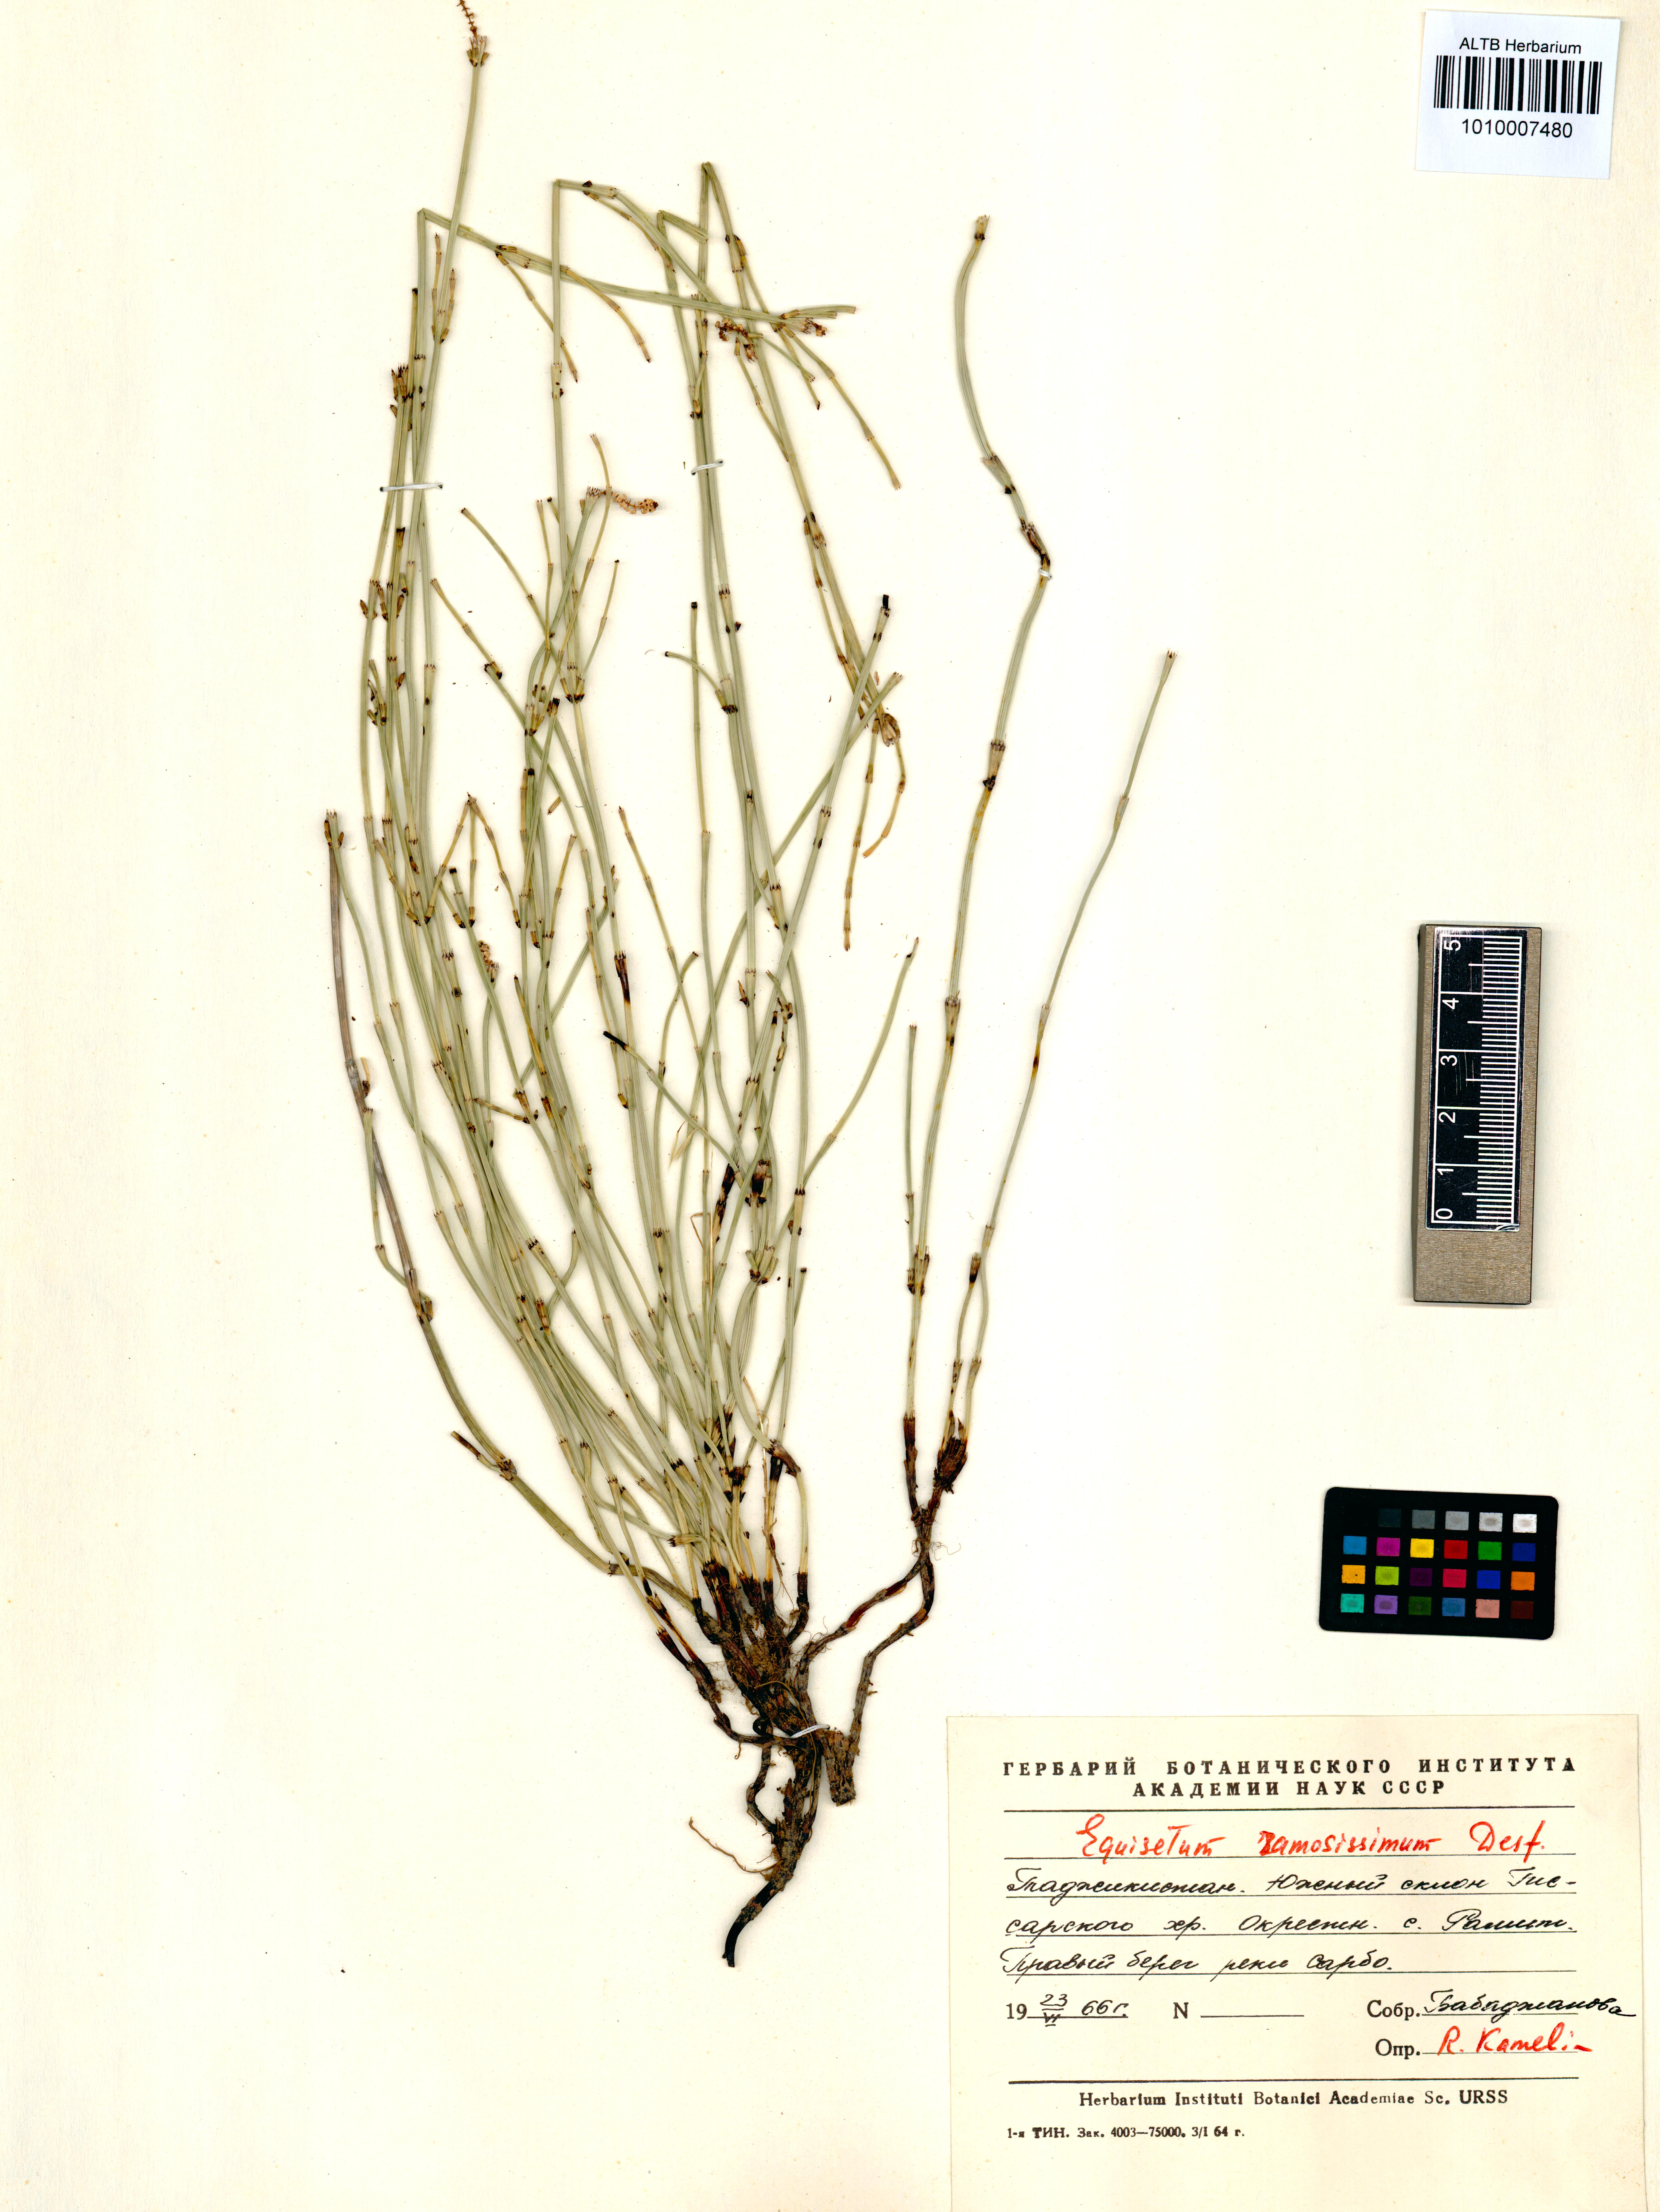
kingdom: Plantae
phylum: Tracheophyta
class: Polypodiopsida
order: Equisetales
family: Equisetaceae
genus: Equisetum
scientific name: Equisetum ramosissimum
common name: Branched horsetail
